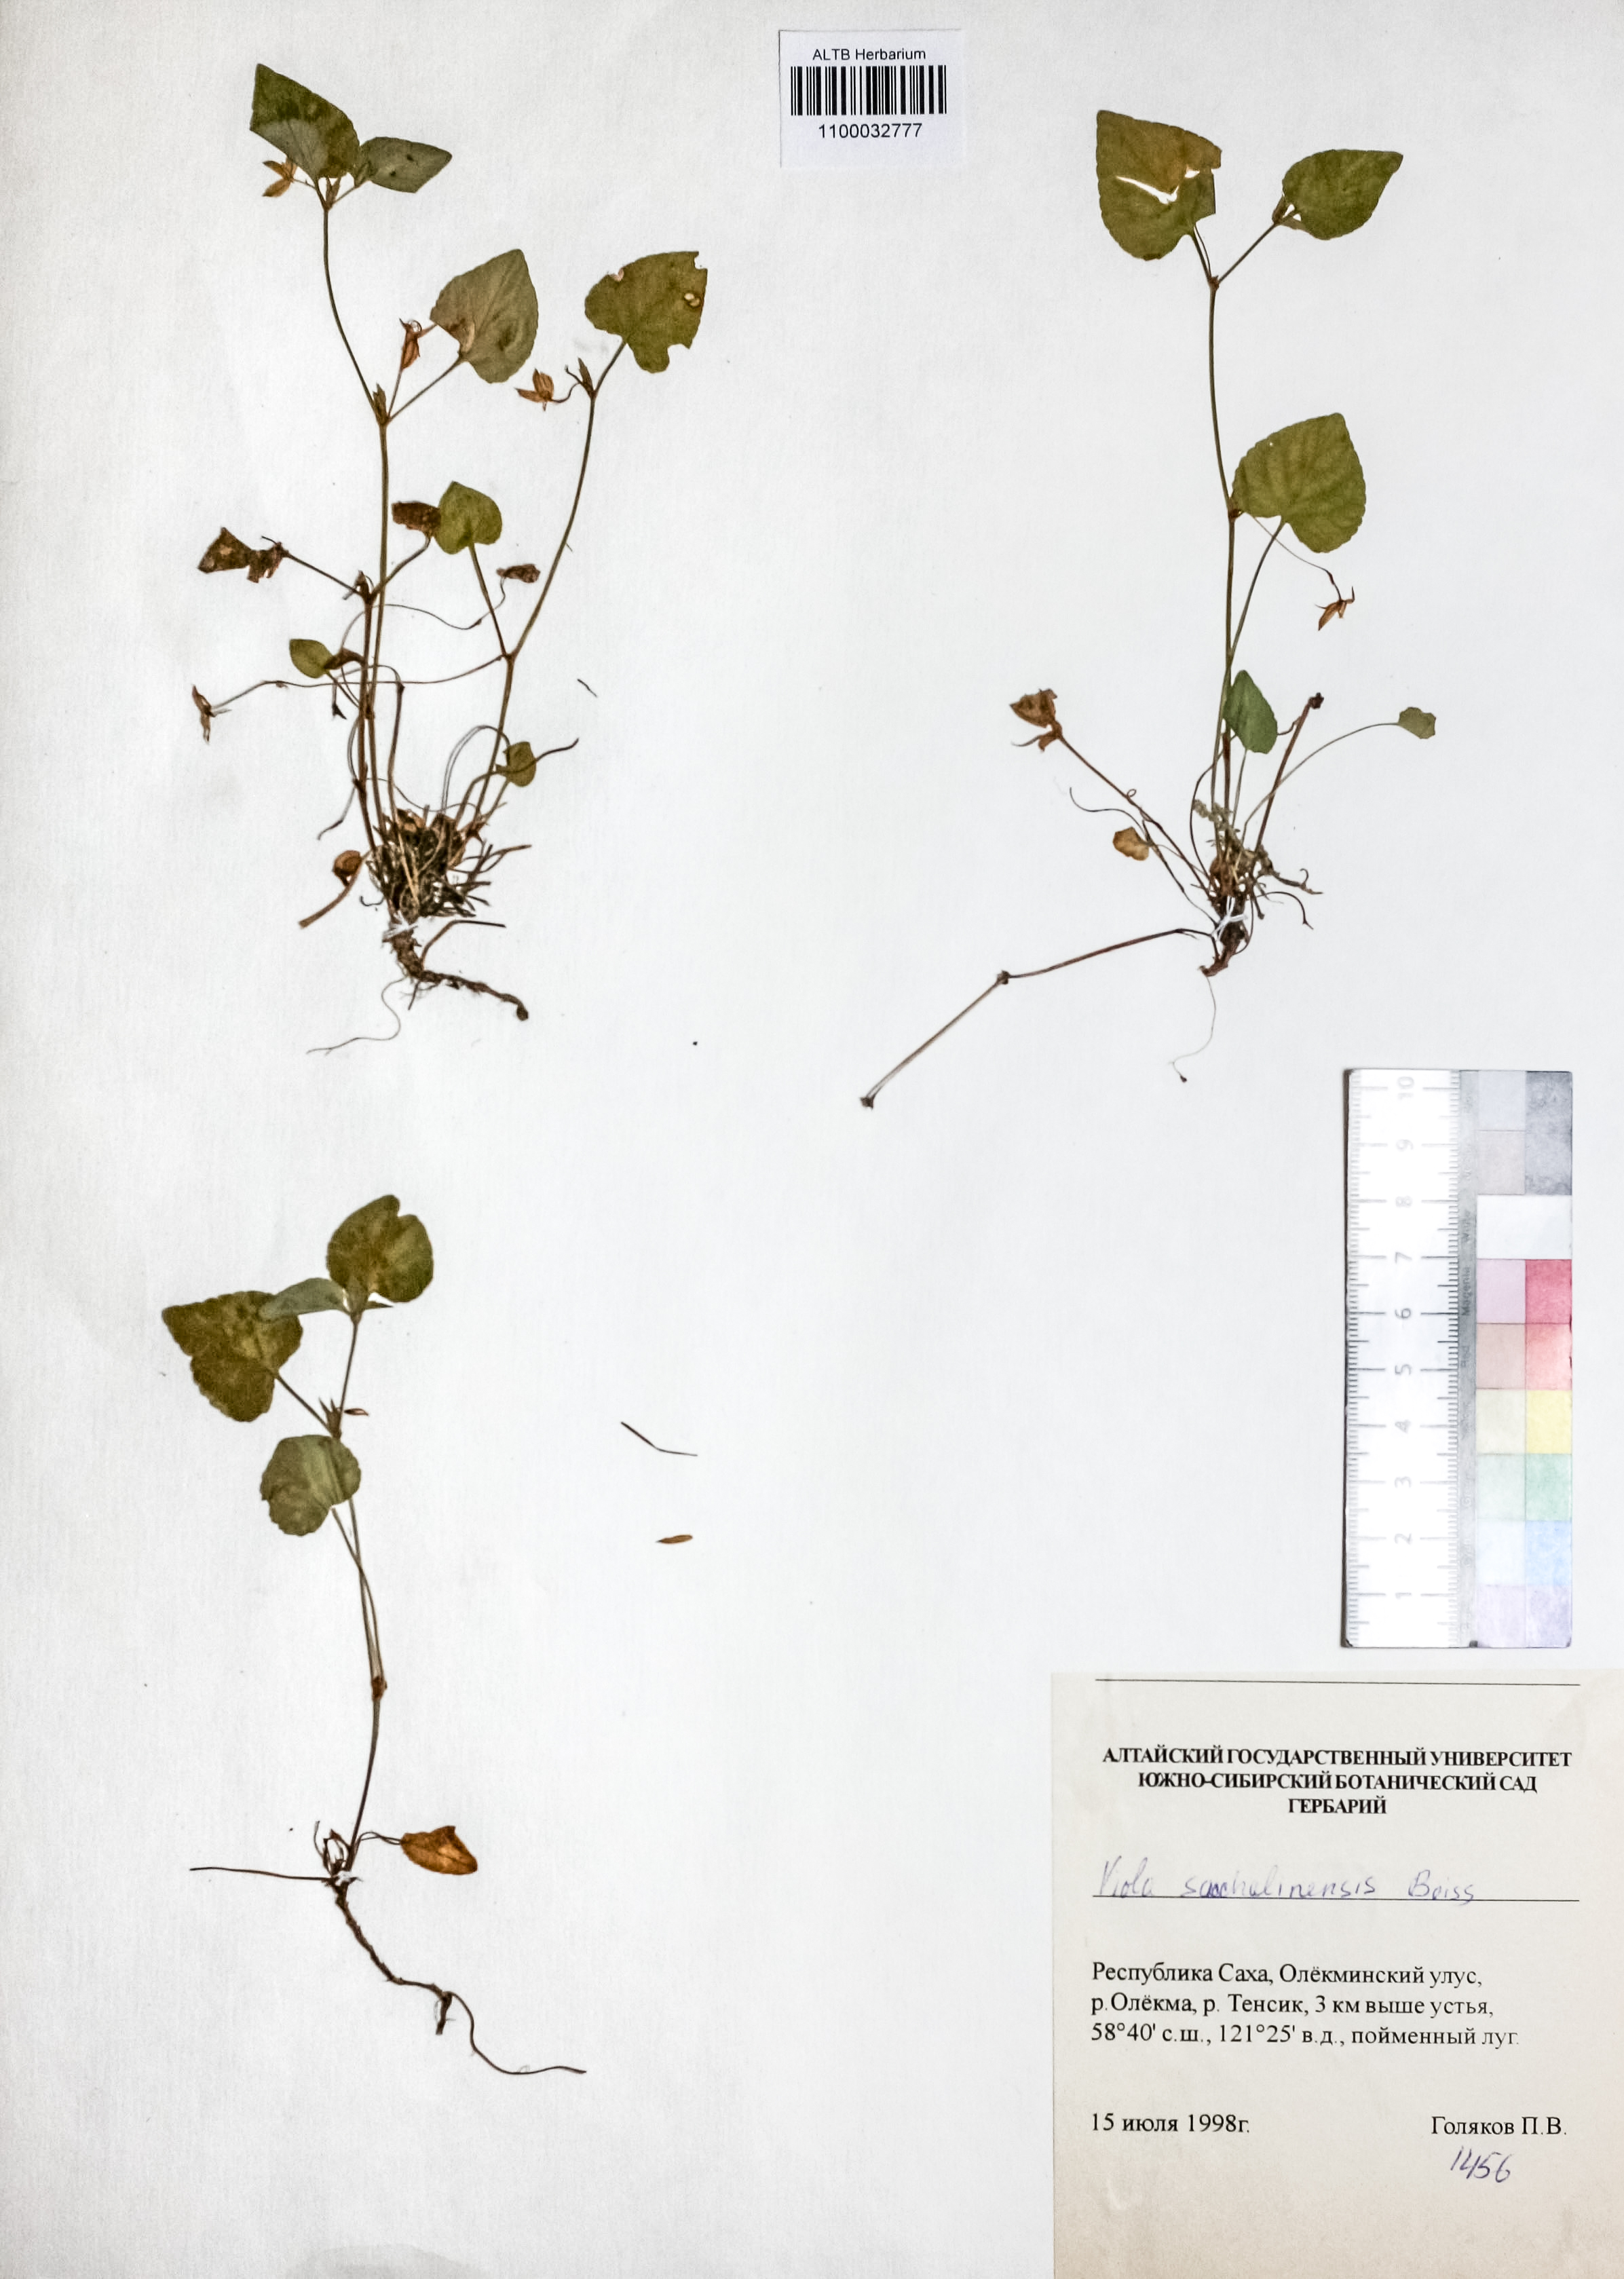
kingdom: Plantae
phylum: Tracheophyta
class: Magnoliopsida
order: Malpighiales
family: Violaceae
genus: Viola
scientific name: Viola sacchalinensis
